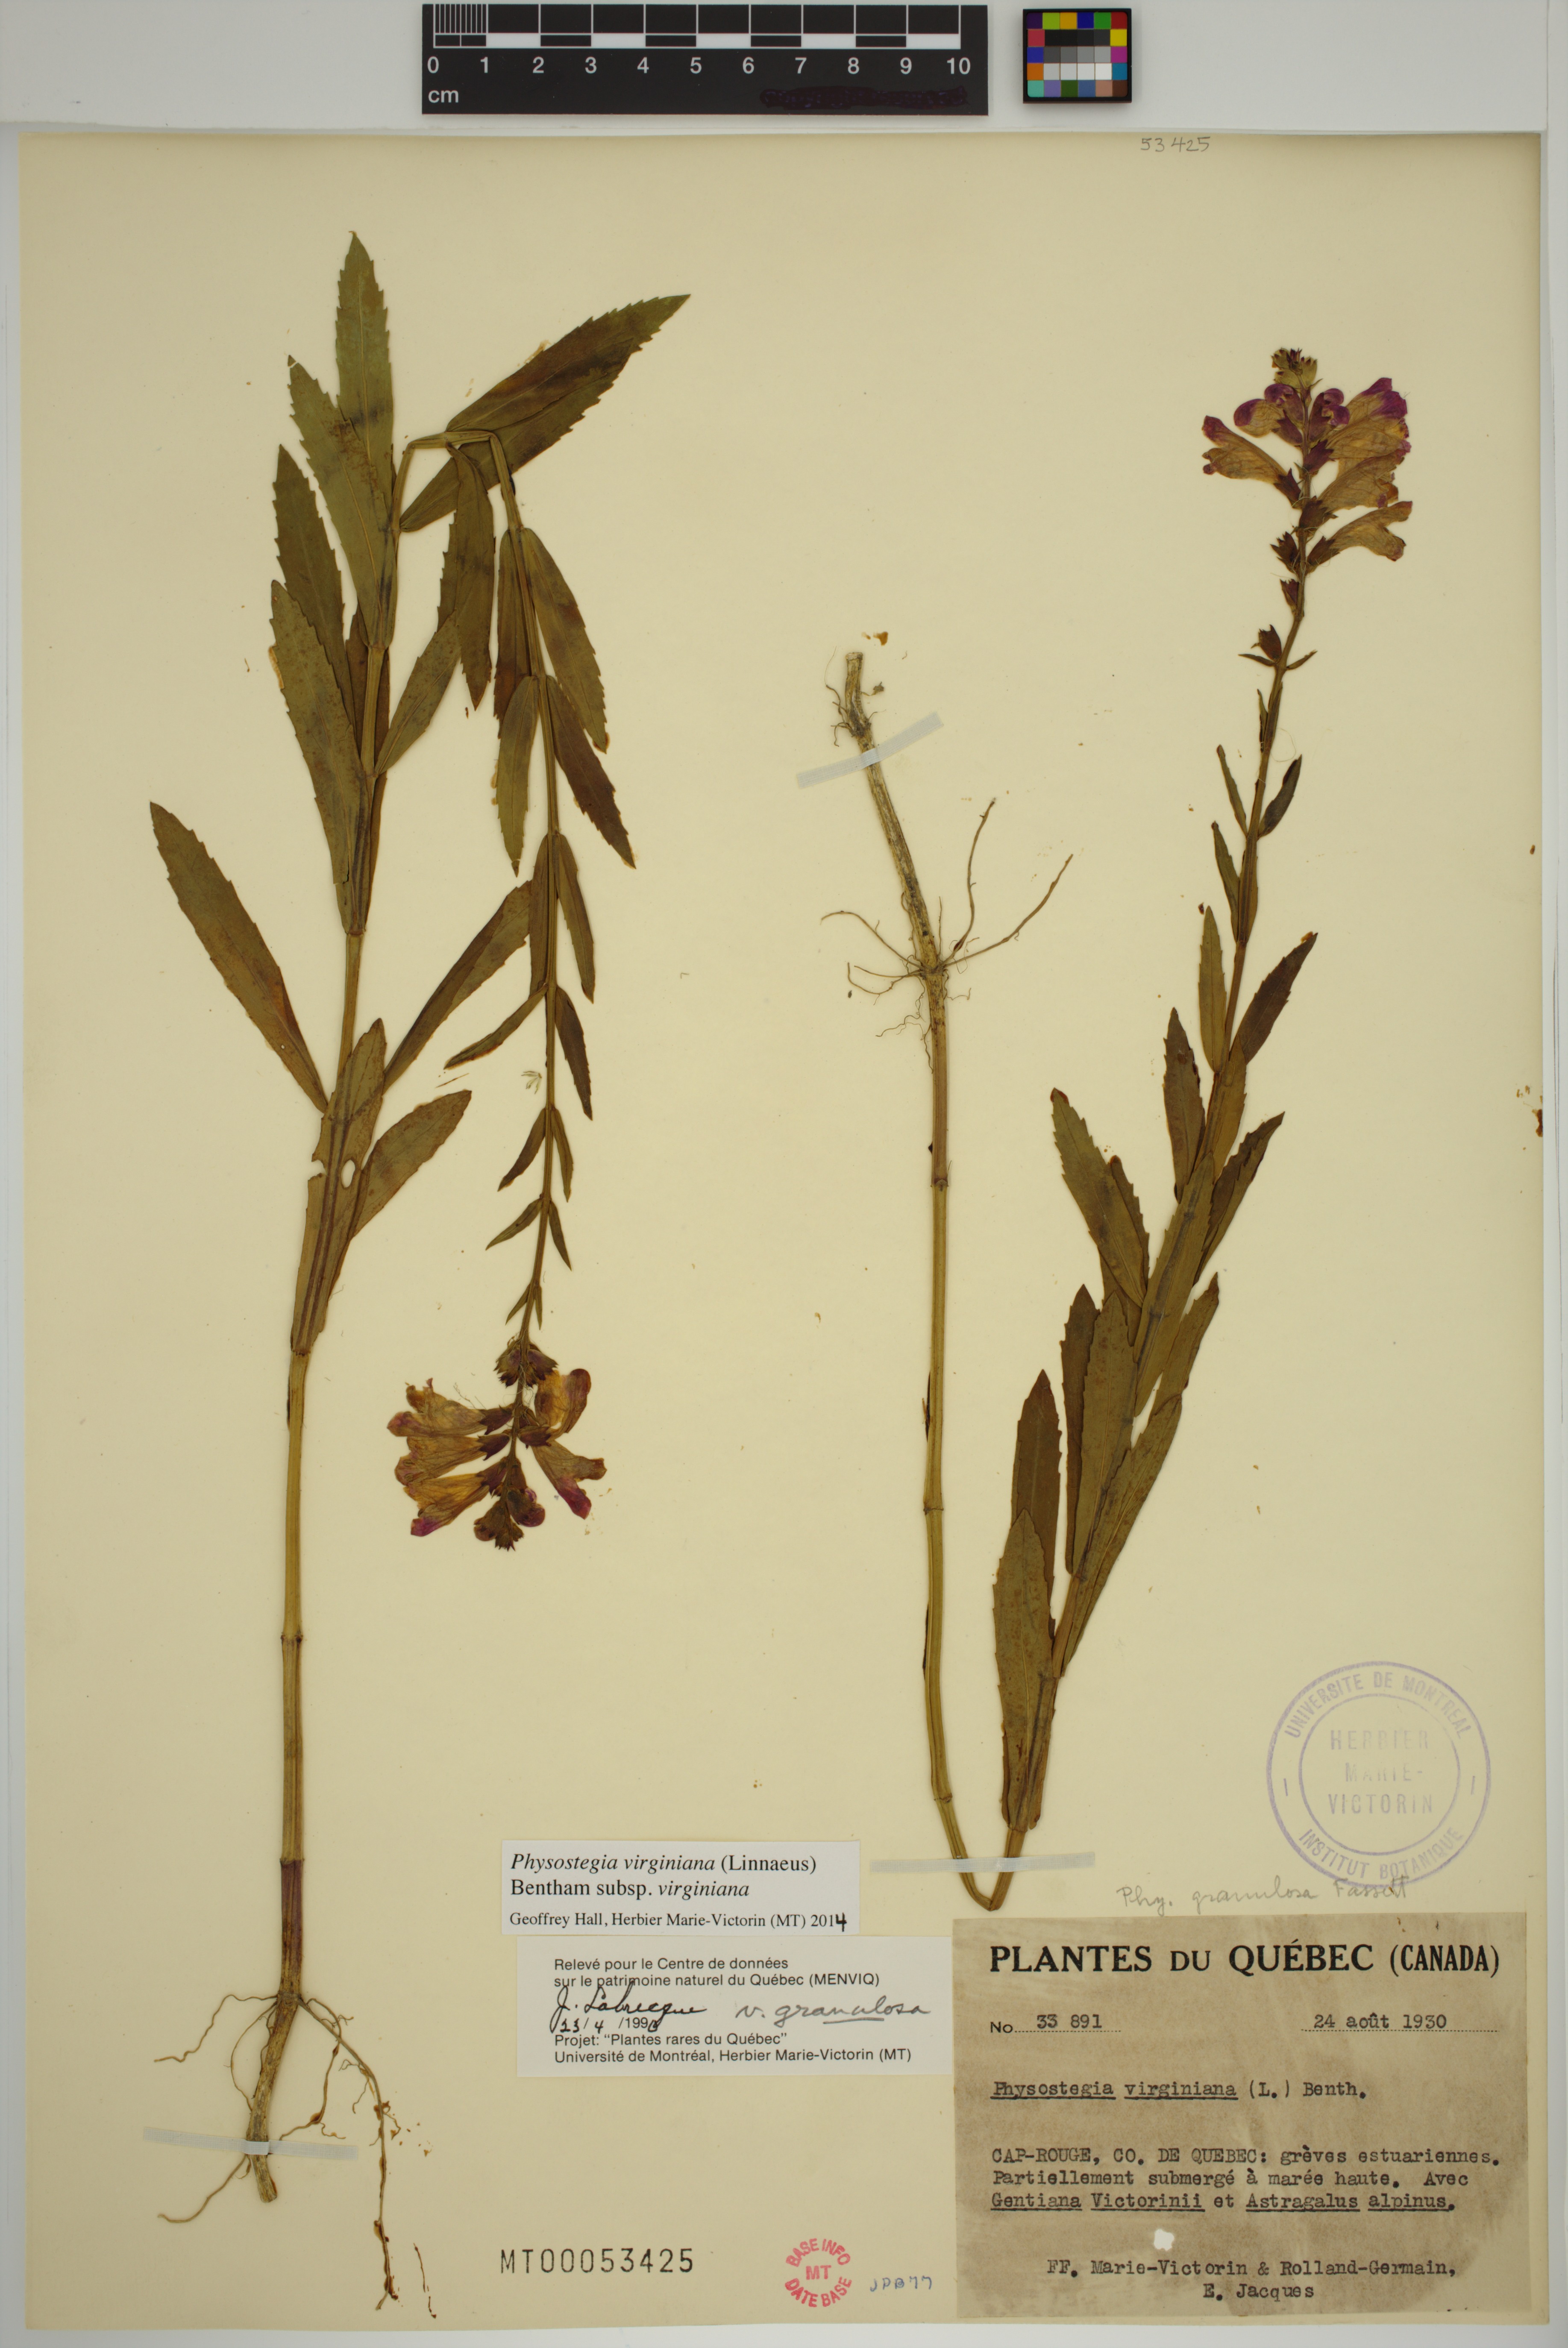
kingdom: Plantae
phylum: Tracheophyta
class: Magnoliopsida
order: Lamiales
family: Lamiaceae
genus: Physostegia
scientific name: Physostegia virginiana
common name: Obedient-plant
